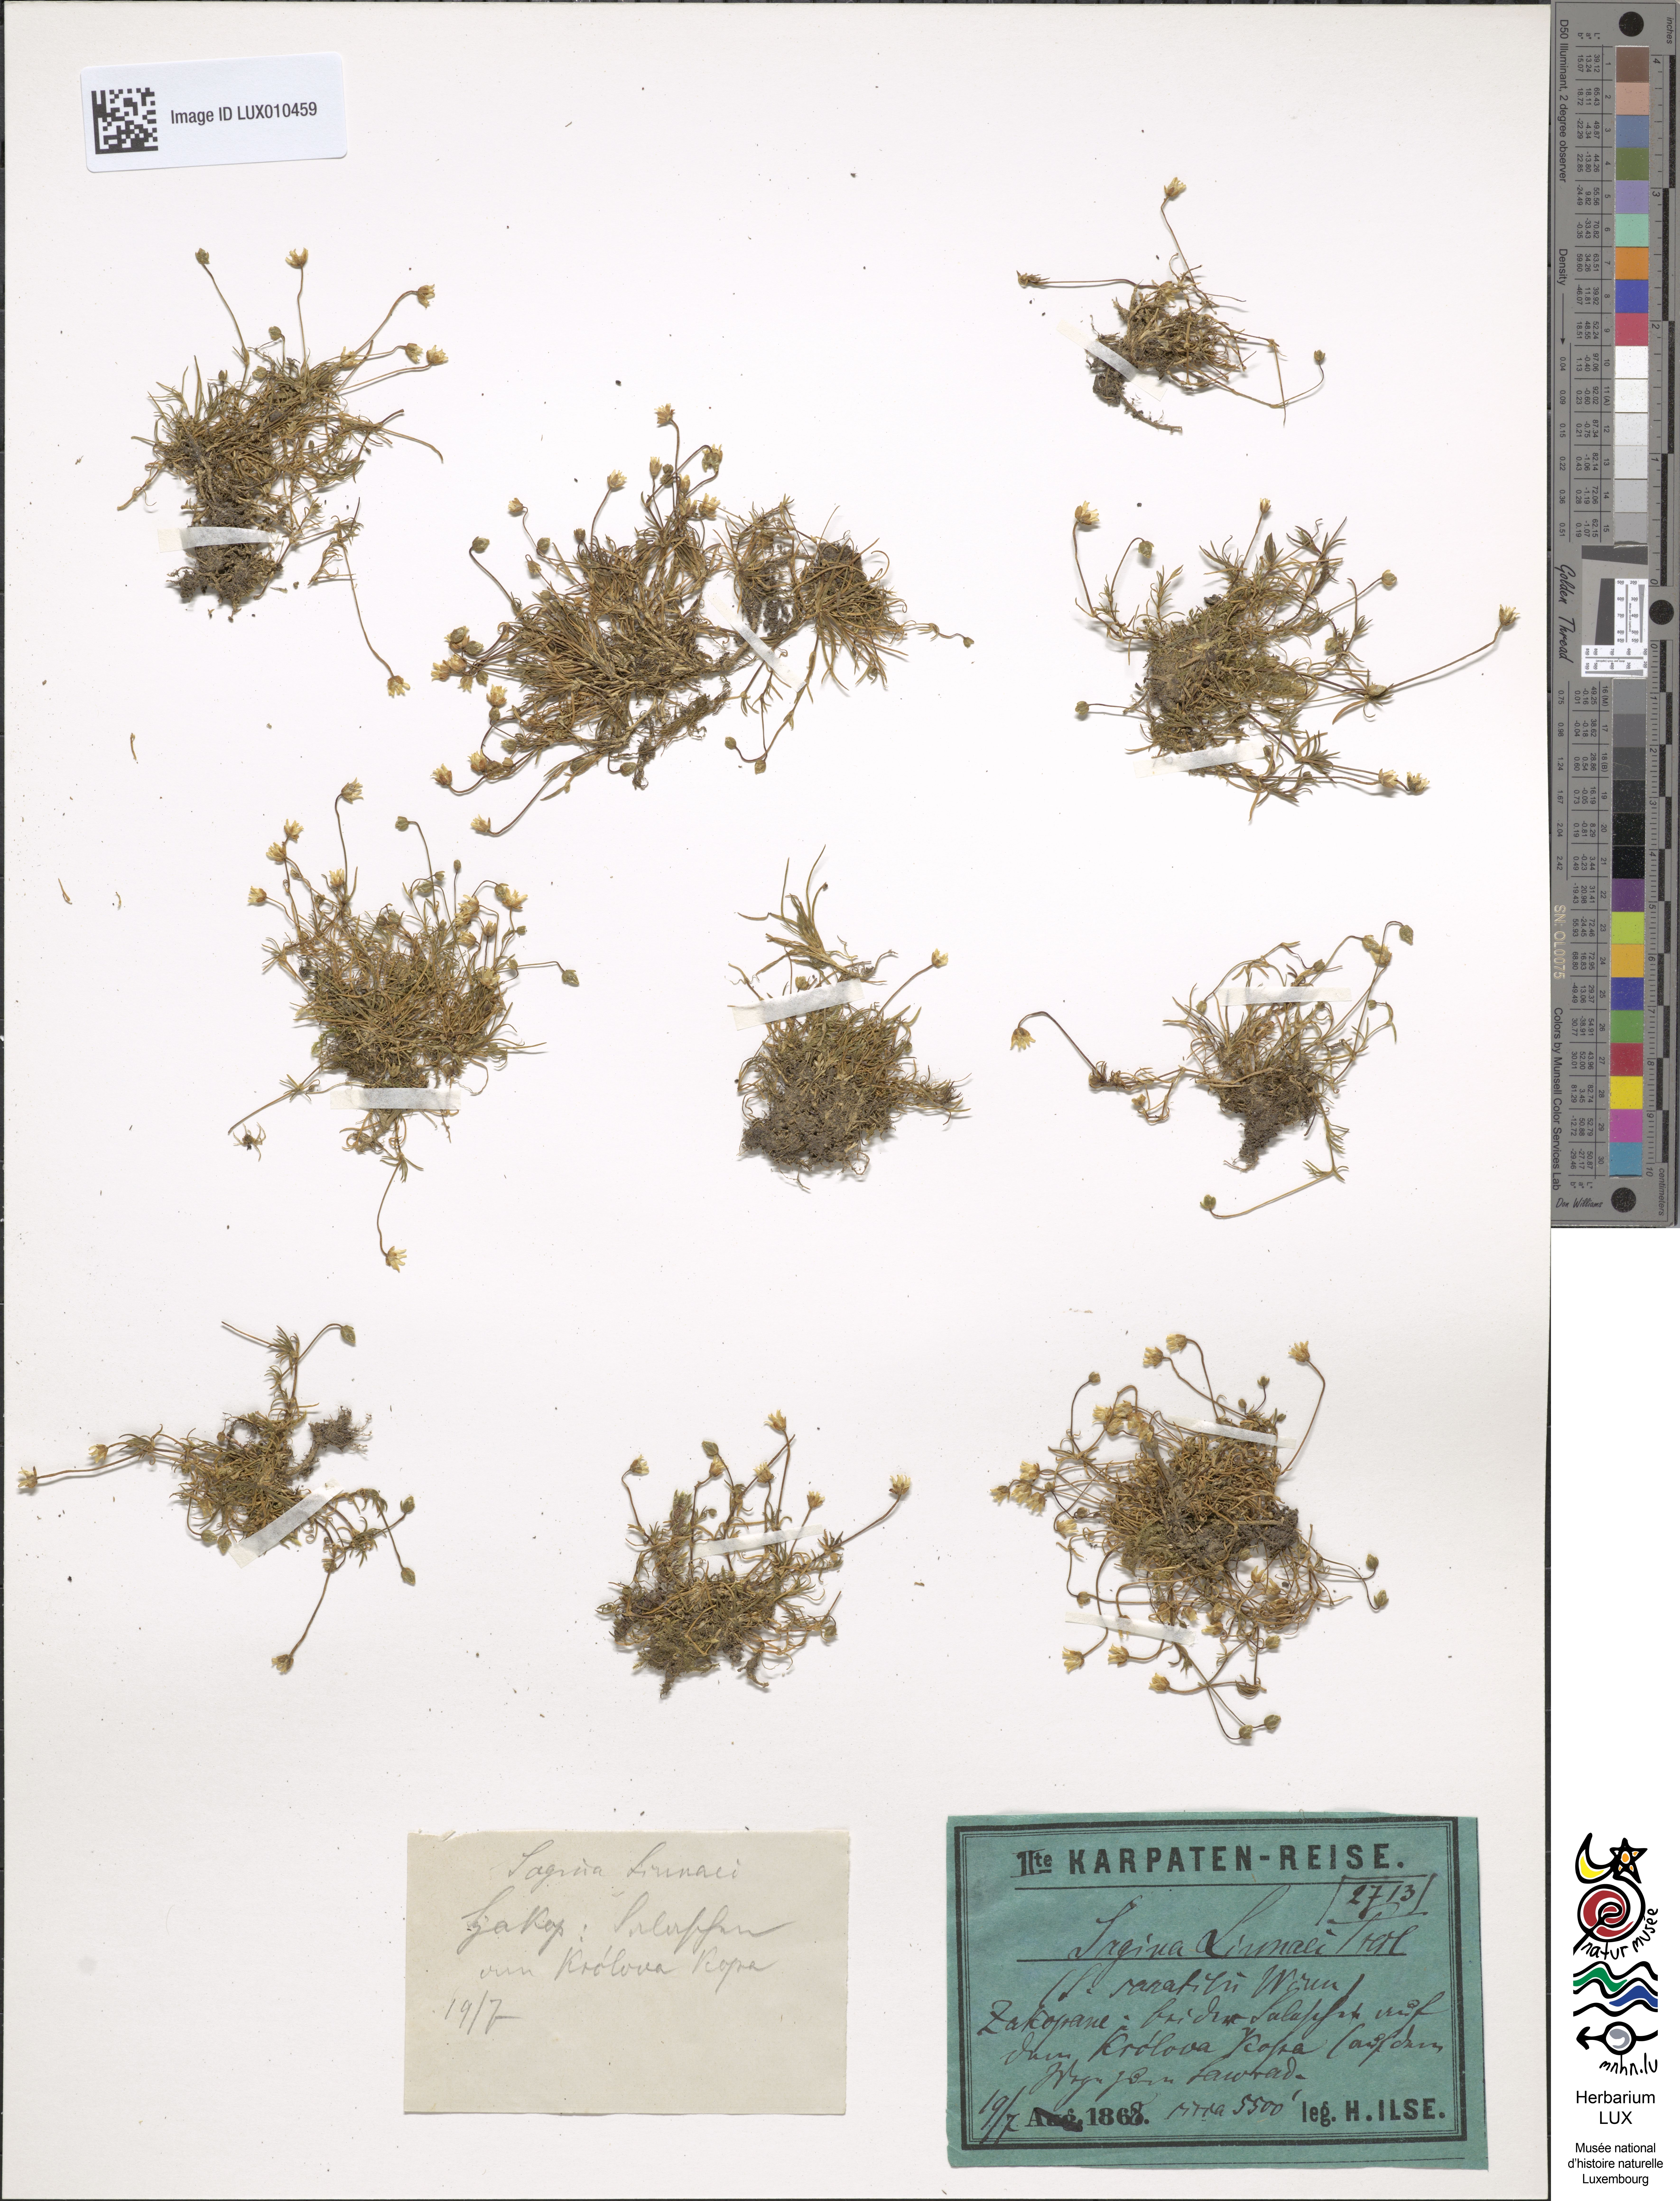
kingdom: Plantae
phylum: Tracheophyta
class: Magnoliopsida
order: Caryophyllales
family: Caryophyllaceae
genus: Sagina
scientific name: Sagina saginoides
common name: Alpine pearlwort
